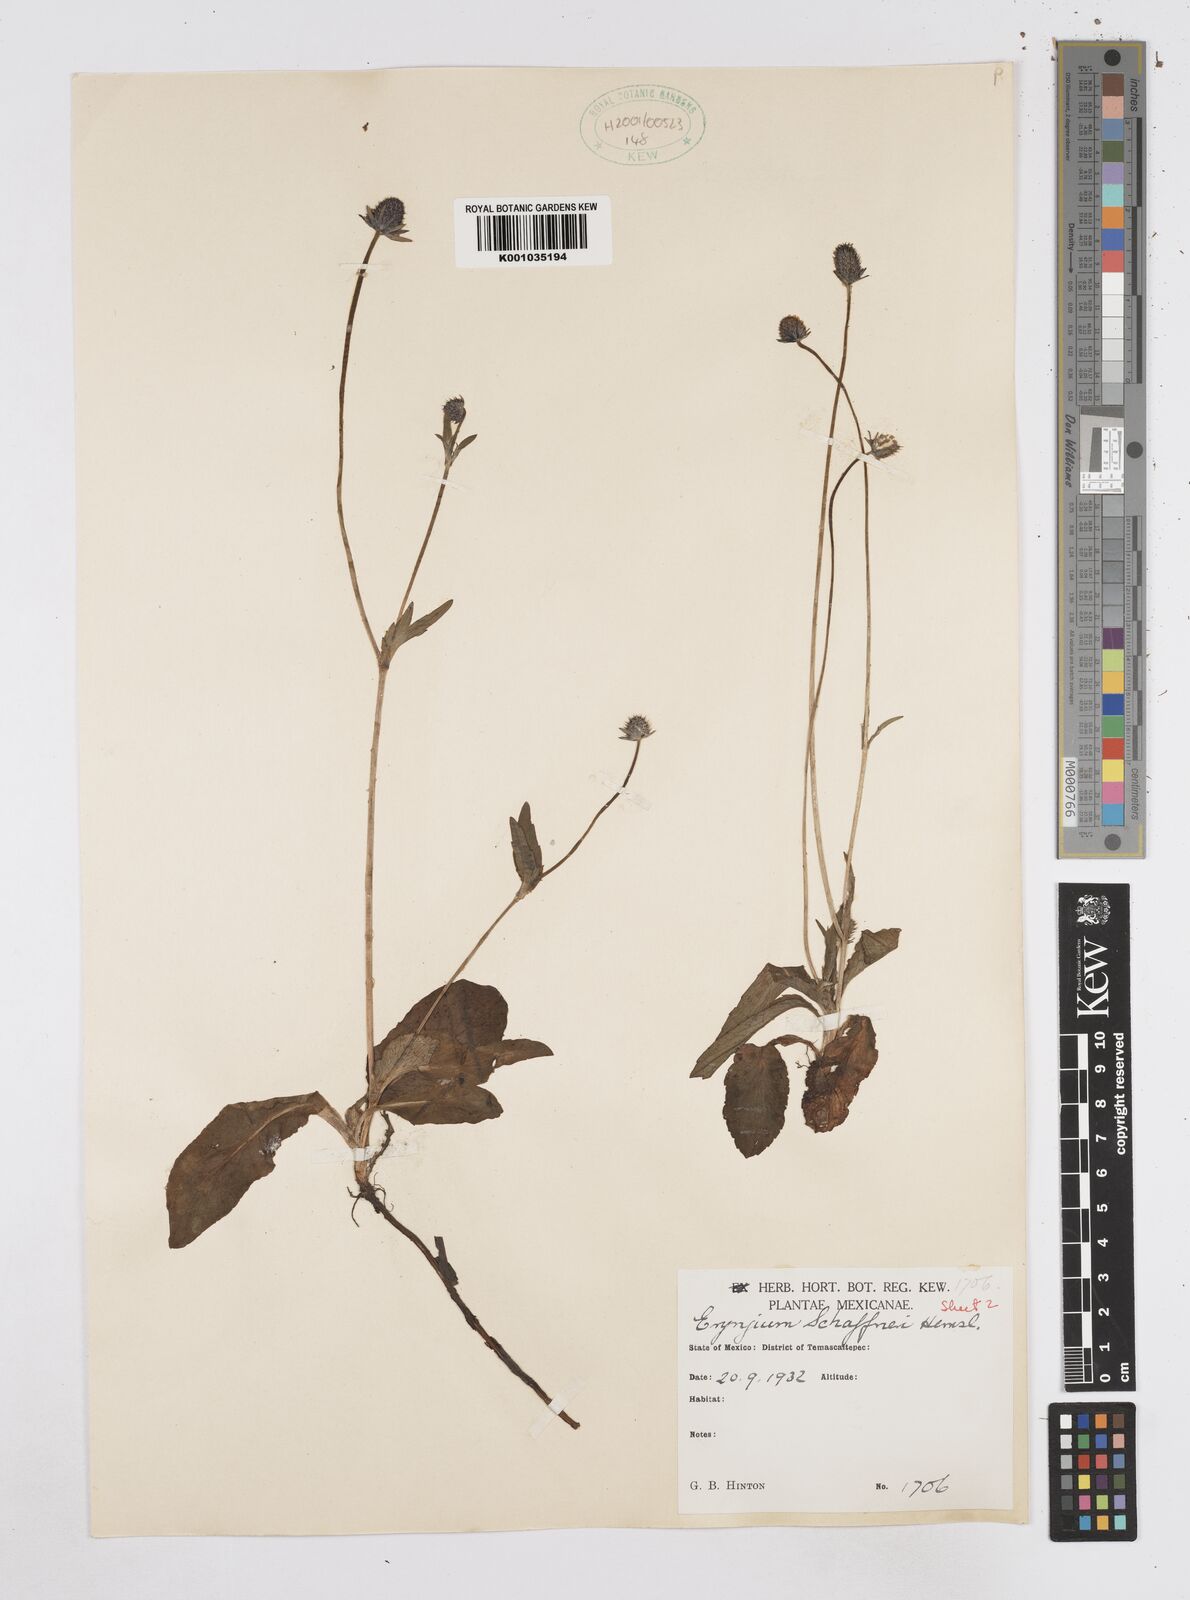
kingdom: Plantae
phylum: Tracheophyta
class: Magnoliopsida
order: Apiales
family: Apiaceae
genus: Eryngium
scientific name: Eryngium bonplandii
